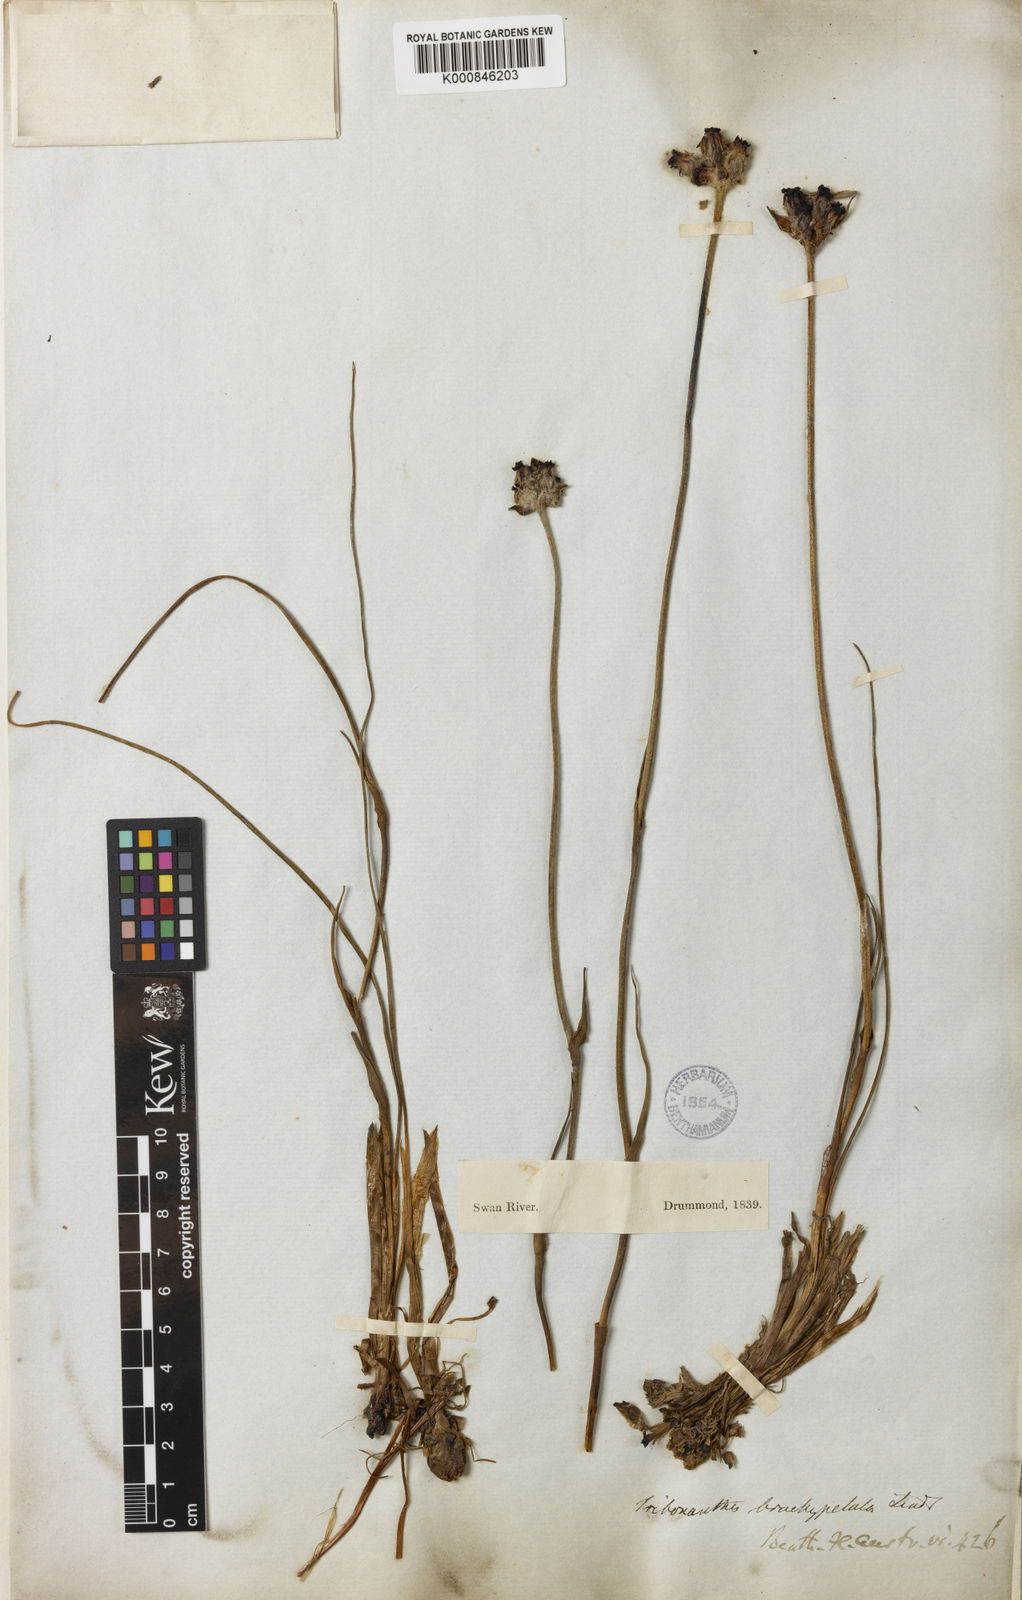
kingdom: Plantae
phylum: Tracheophyta
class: Liliopsida
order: Commelinales
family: Haemodoraceae
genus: Tribonanthes
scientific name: Tribonanthes brachypetala
